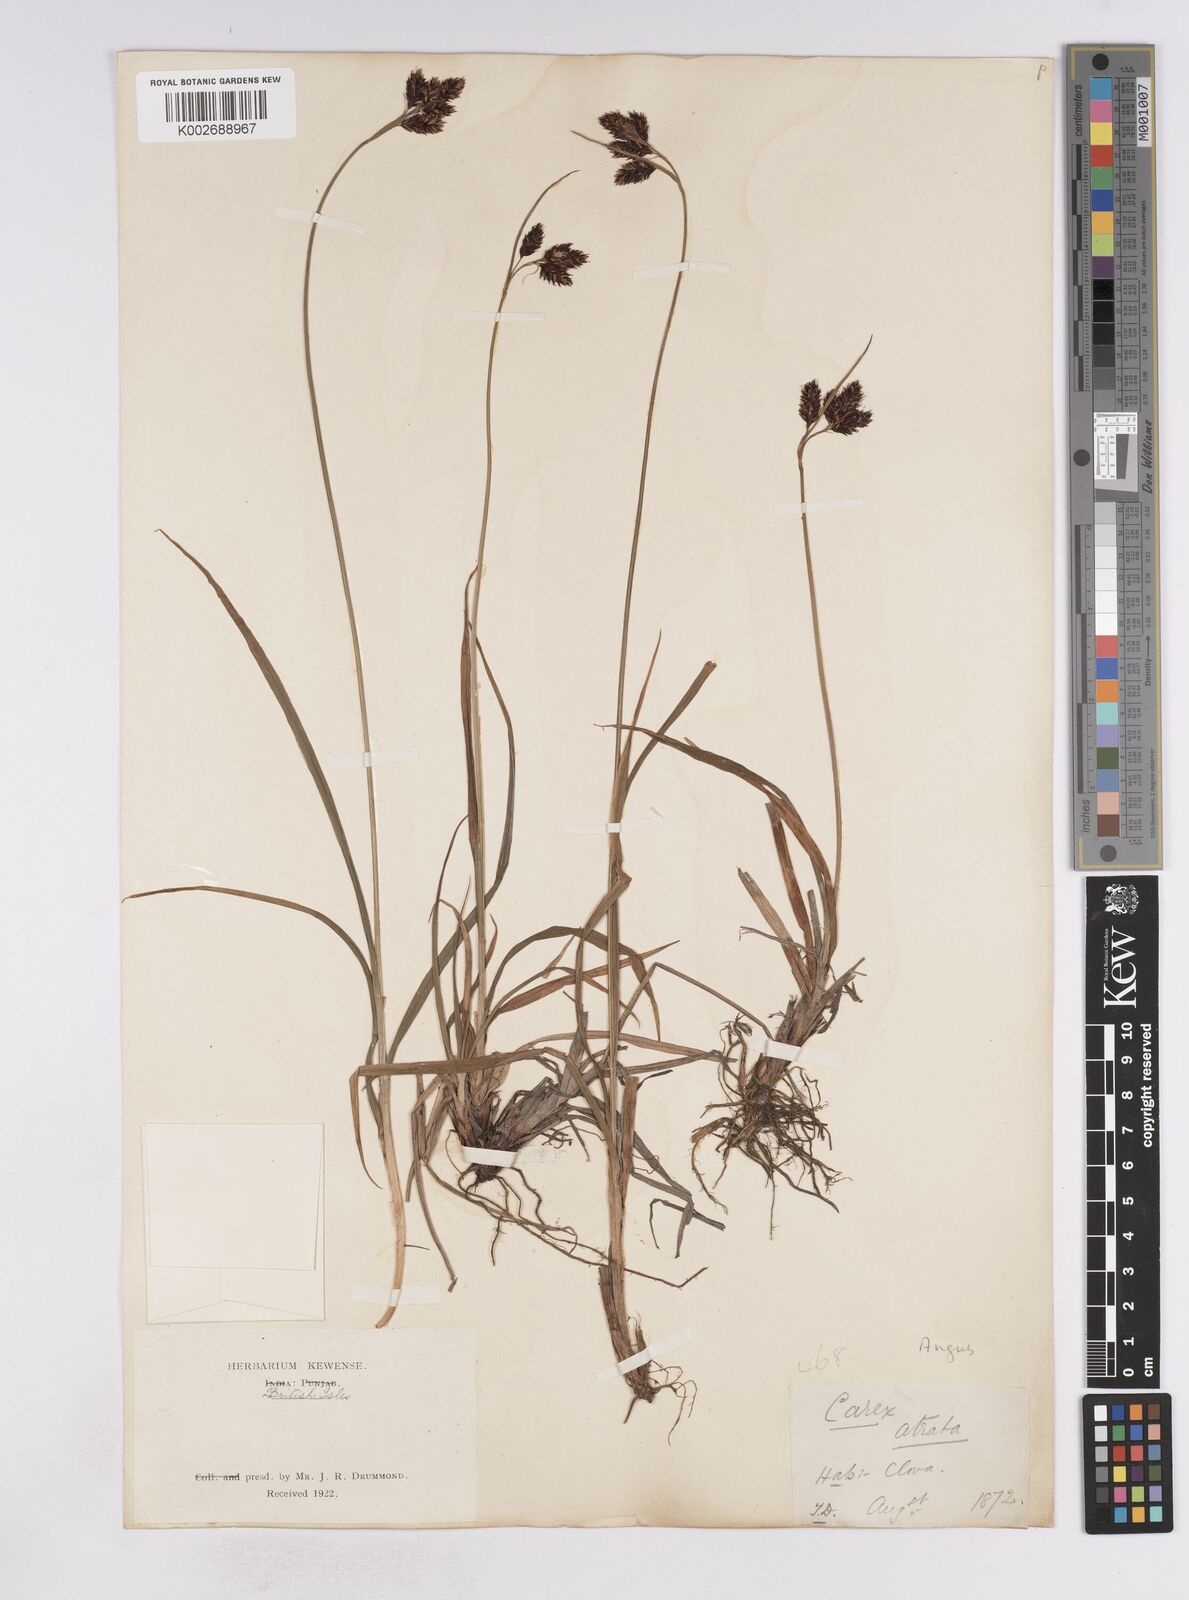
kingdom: Plantae
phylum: Tracheophyta
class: Liliopsida
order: Poales
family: Cyperaceae
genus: Carex
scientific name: Carex atrata
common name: Black alpine sedge
